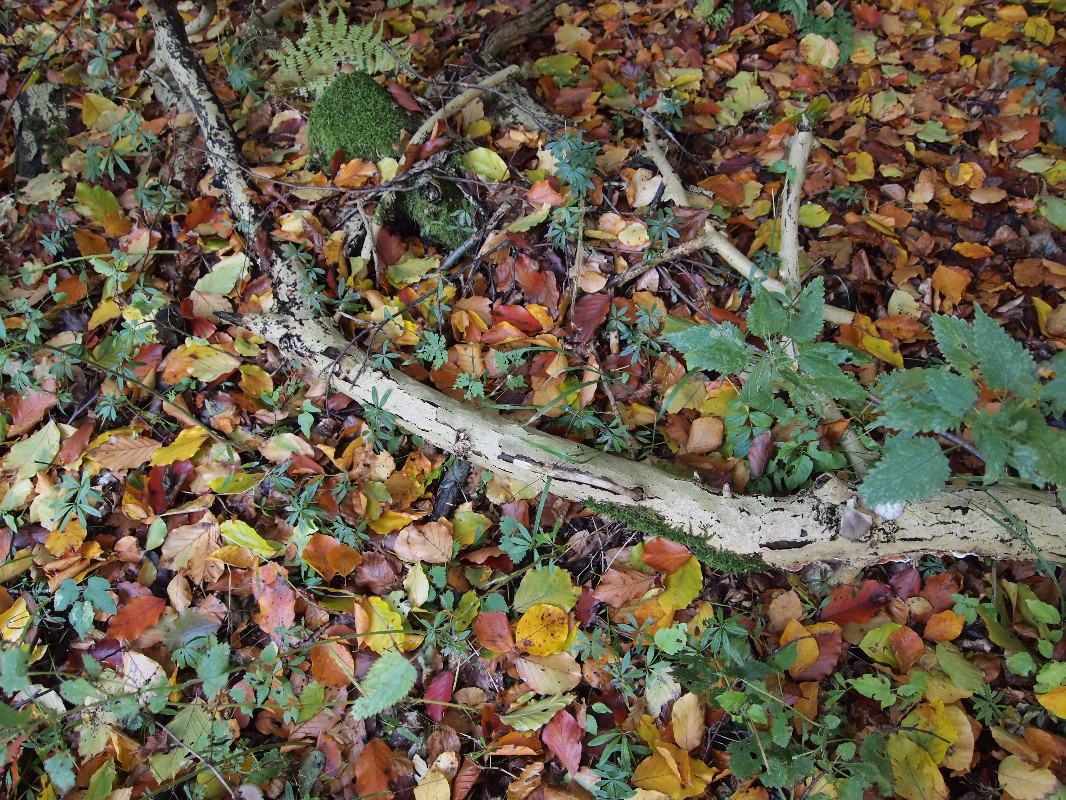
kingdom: Fungi
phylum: Basidiomycota
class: Agaricomycetes
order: Agaricales
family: Pleurotaceae
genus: Pleurotus
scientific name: Pleurotus ostreatus
